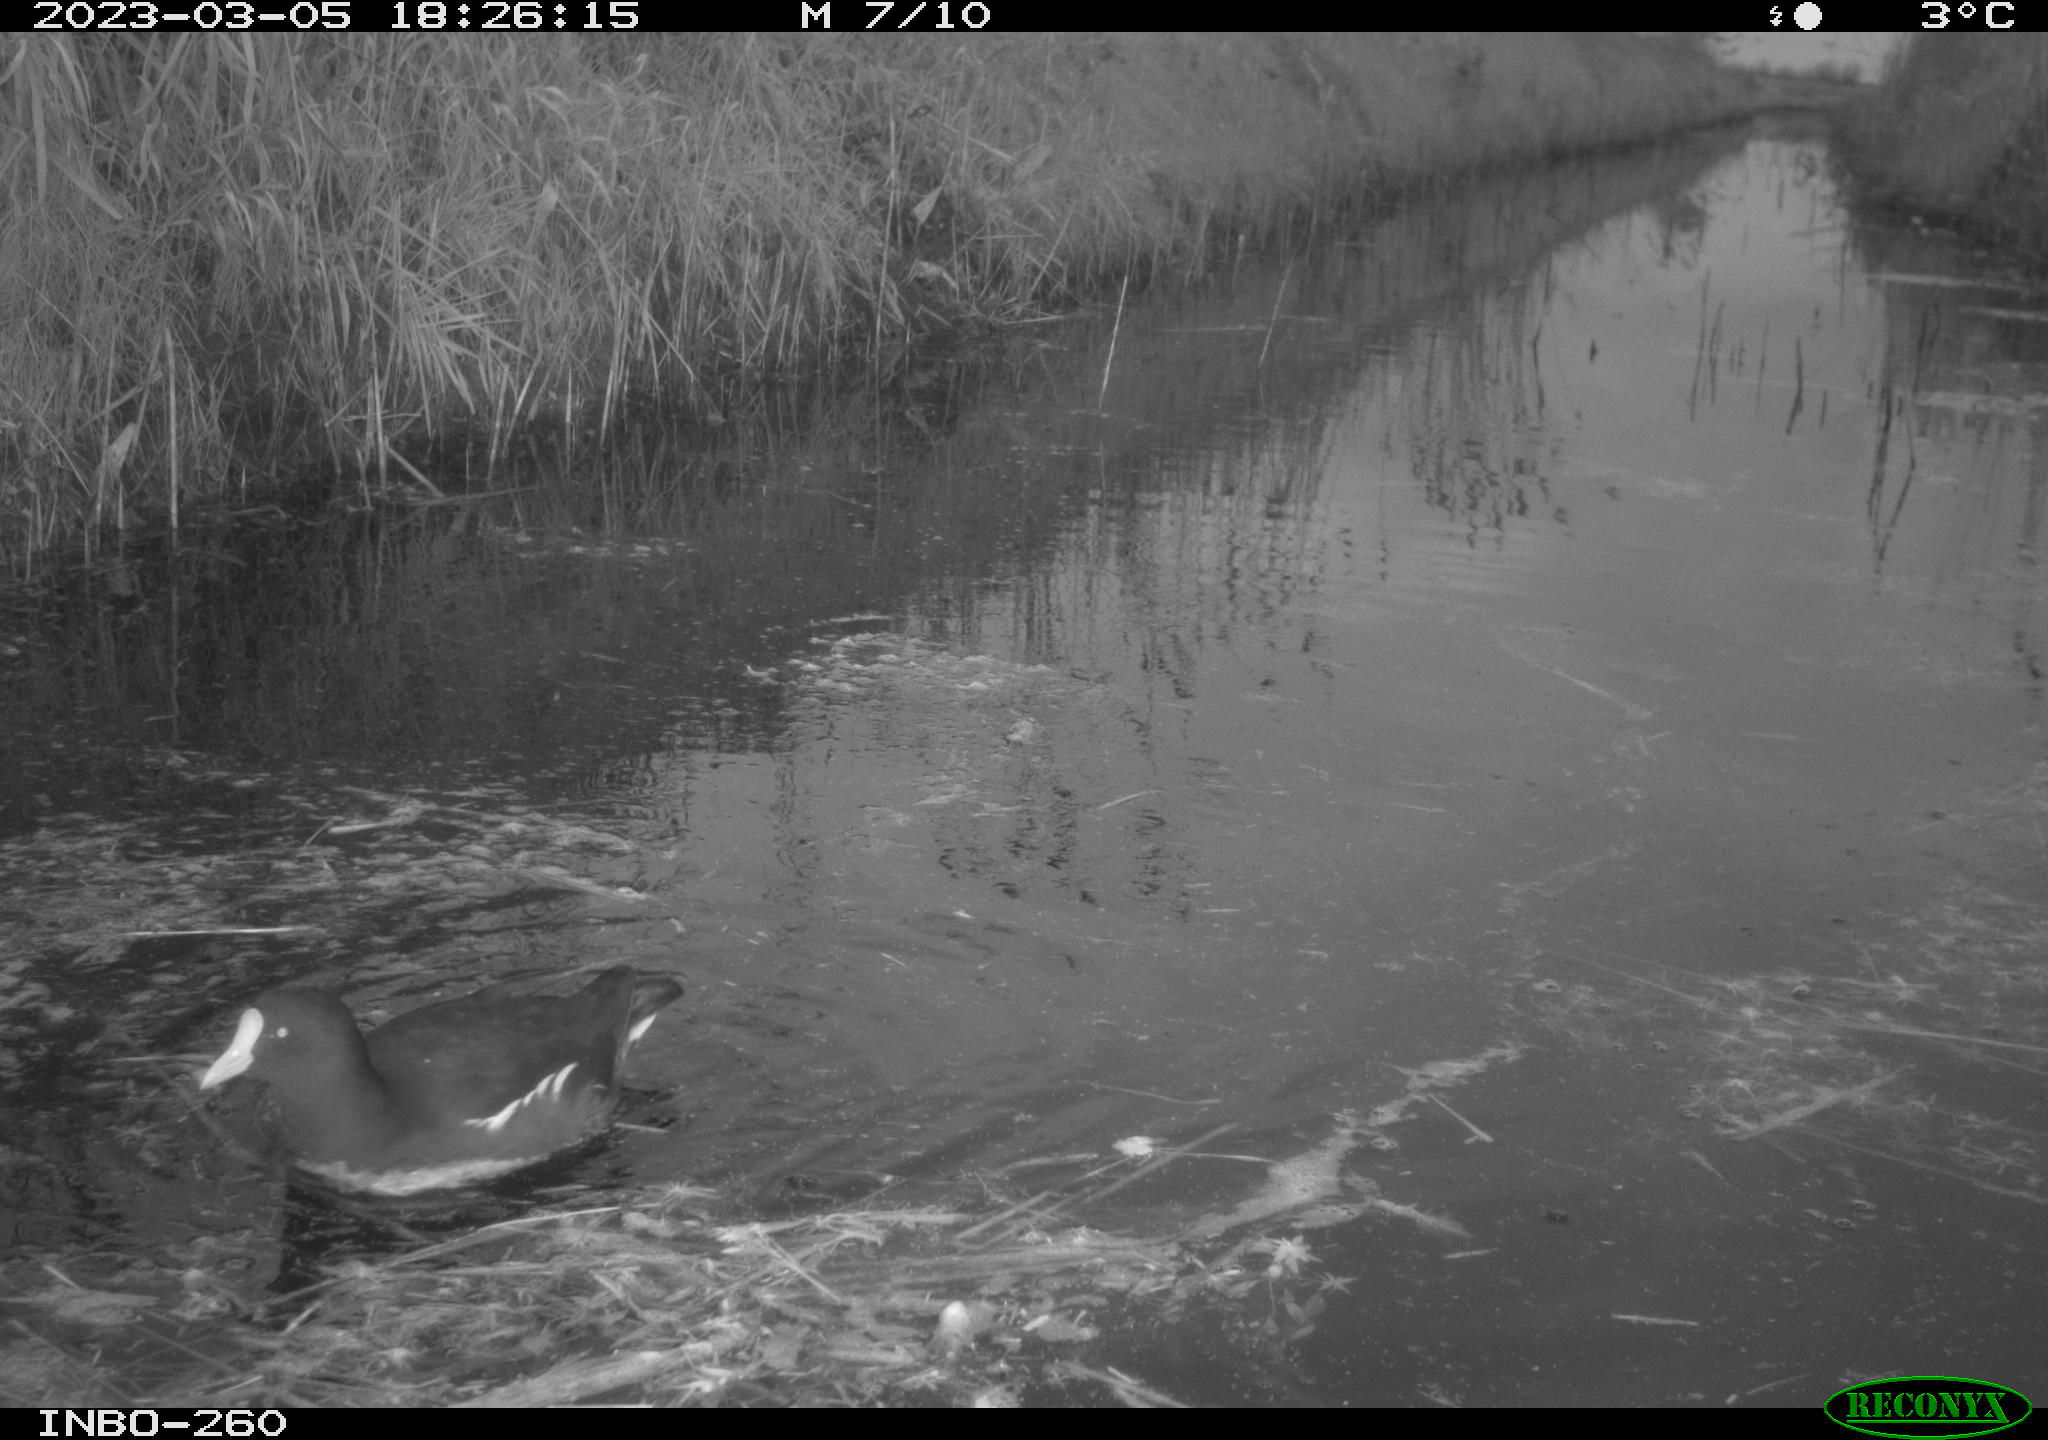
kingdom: Animalia
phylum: Chordata
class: Aves
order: Gruiformes
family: Rallidae
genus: Gallinula
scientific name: Gallinula chloropus
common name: Common moorhen
